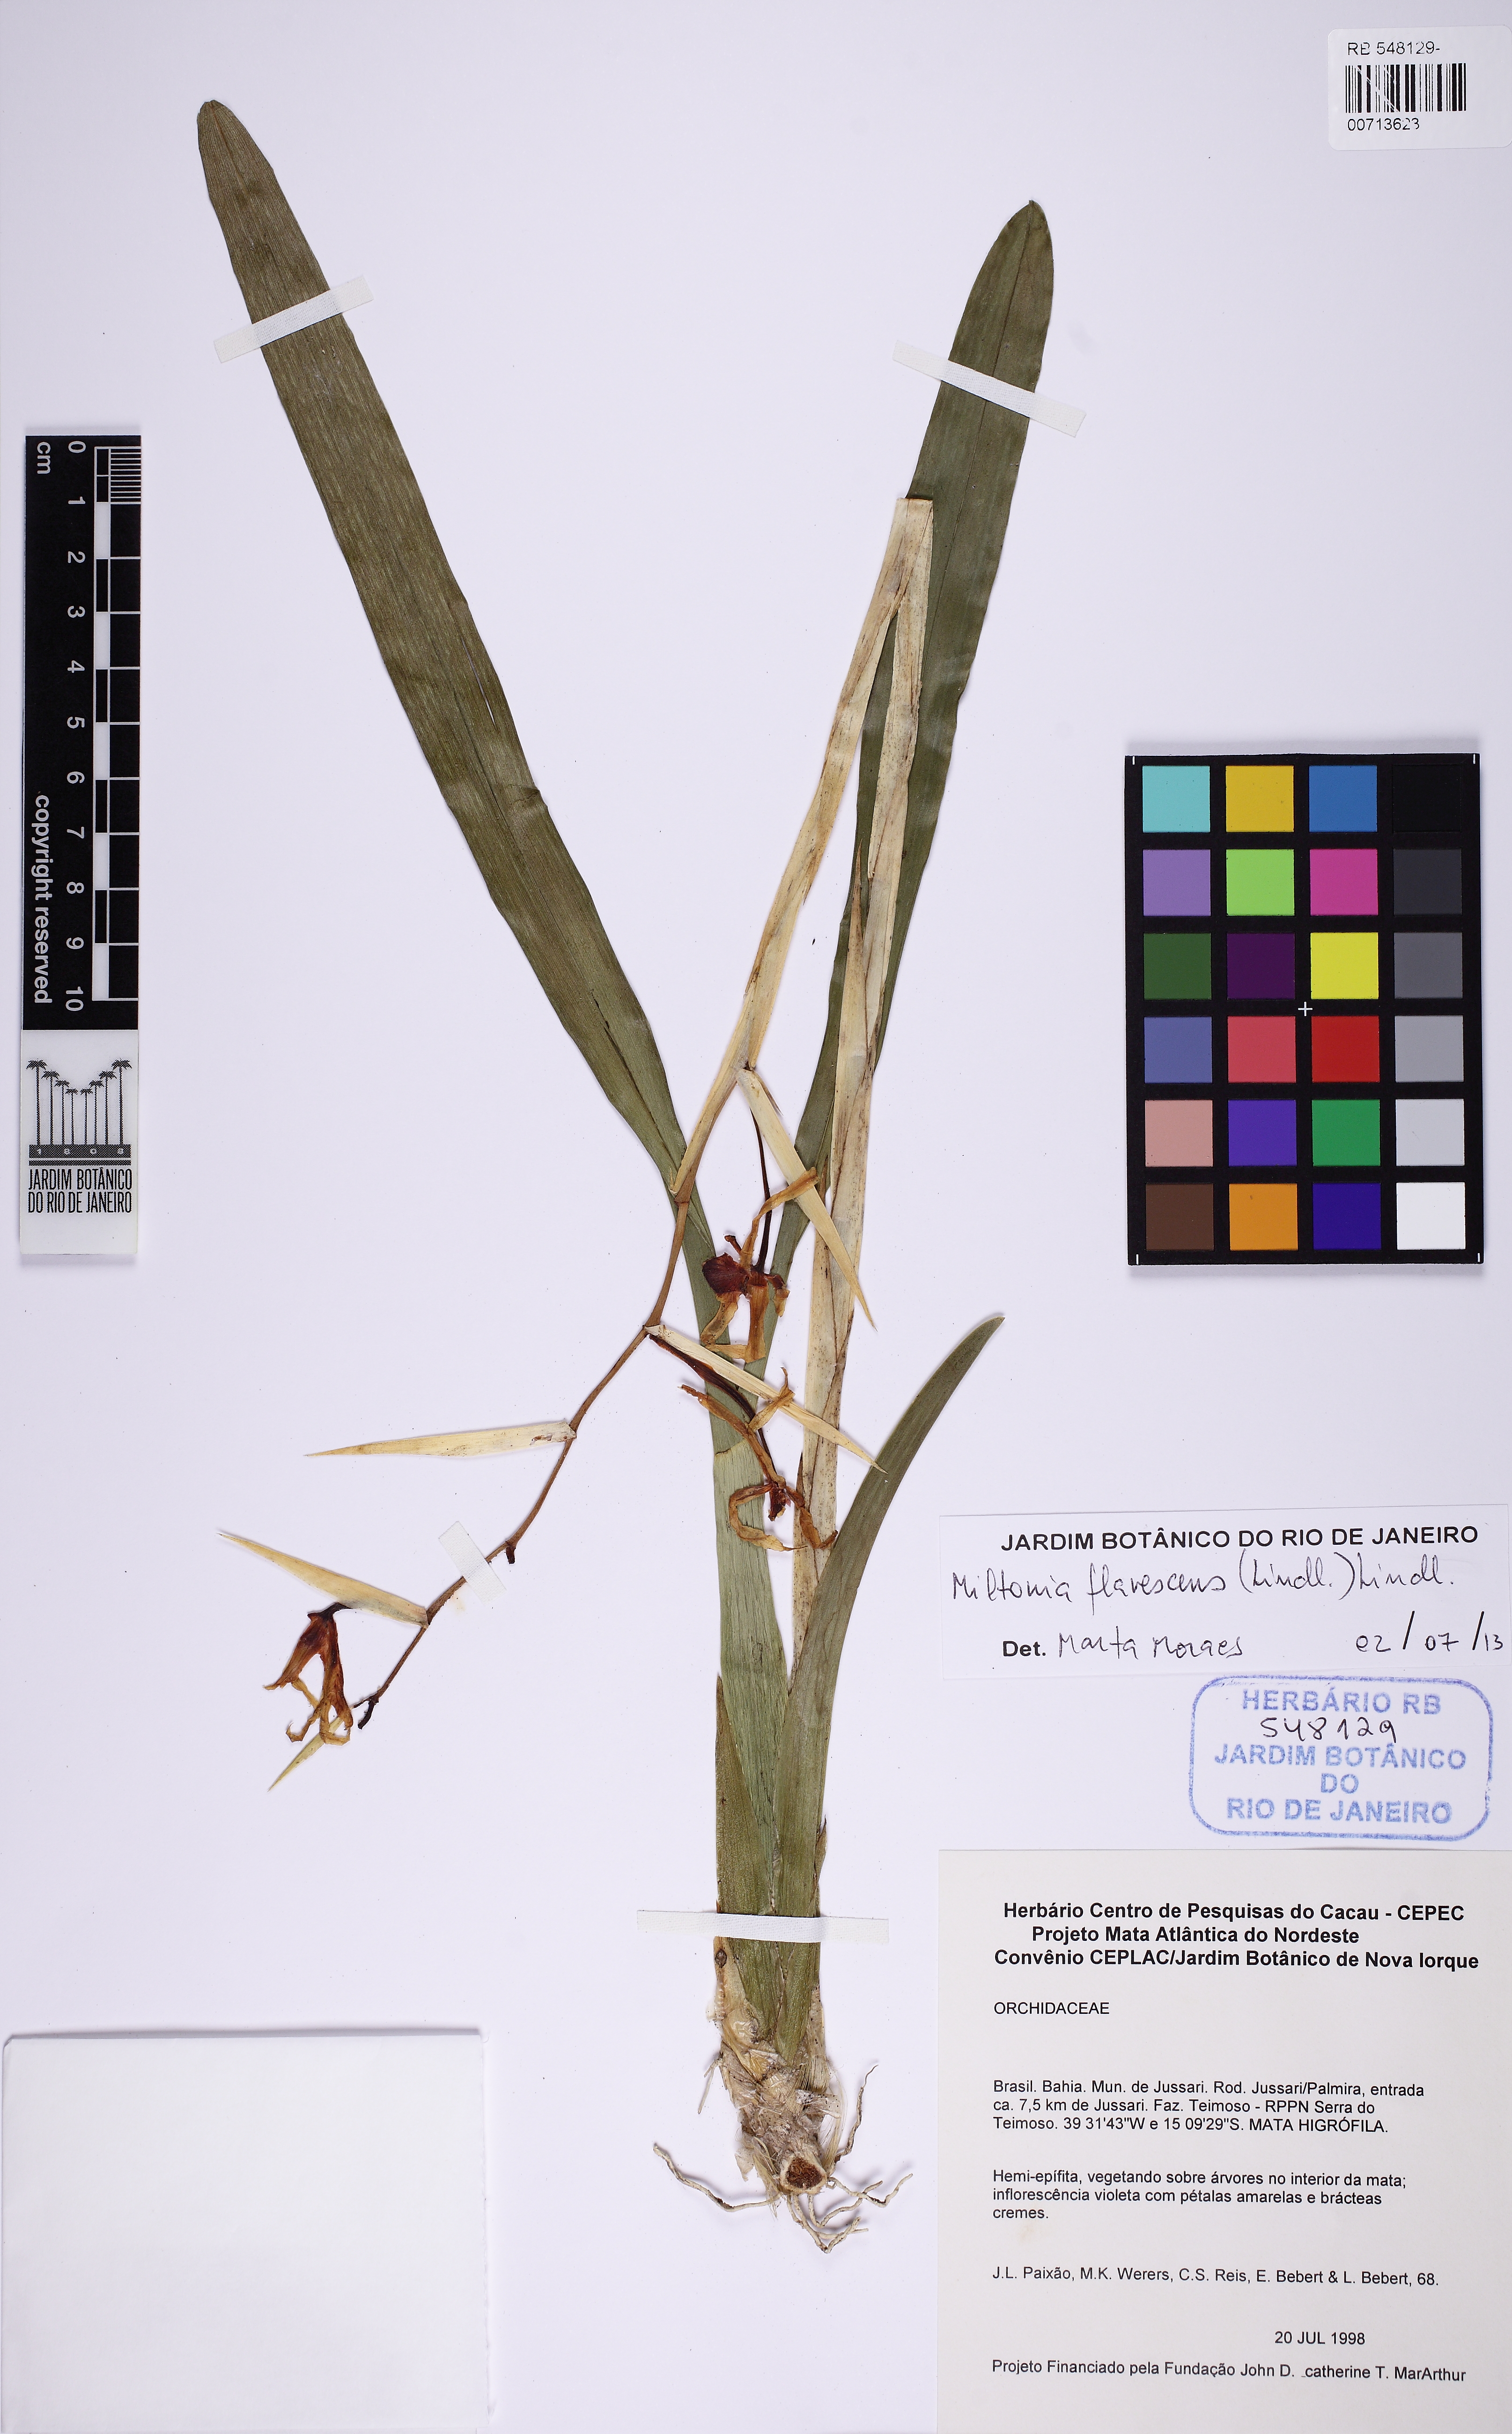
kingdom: Plantae
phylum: Tracheophyta
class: Liliopsida
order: Asparagales
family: Orchidaceae
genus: Miltonia
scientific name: Miltonia flavescens
